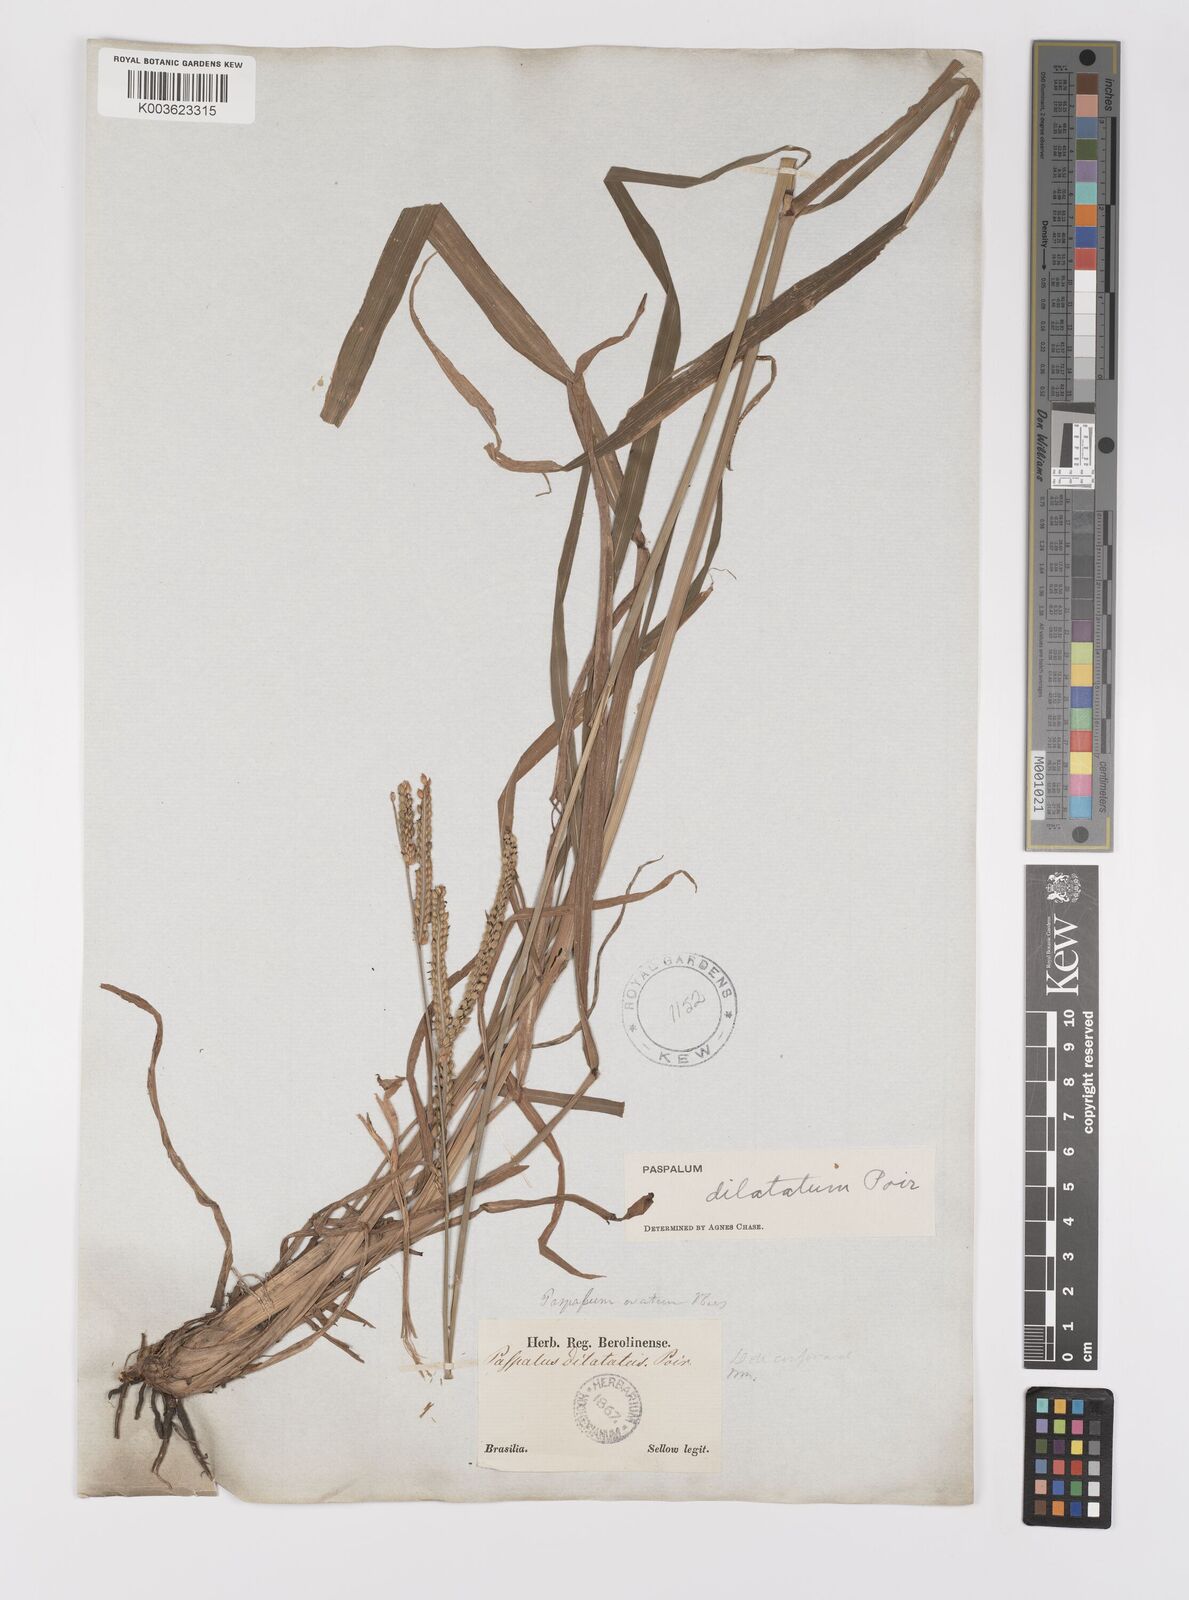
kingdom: Plantae
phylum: Tracheophyta
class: Liliopsida
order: Poales
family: Poaceae
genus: Paspalum
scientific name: Paspalum dilatatum
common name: Dallisgrass
